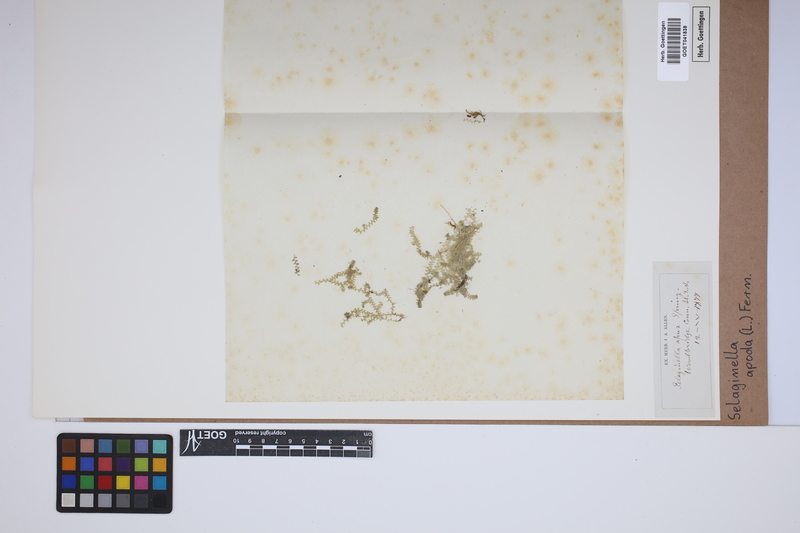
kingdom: Plantae
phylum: Tracheophyta
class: Lycopodiopsida
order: Selaginellales
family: Selaginellaceae
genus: Selaginella
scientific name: Selaginella apoda
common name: Creeping spikemoss
